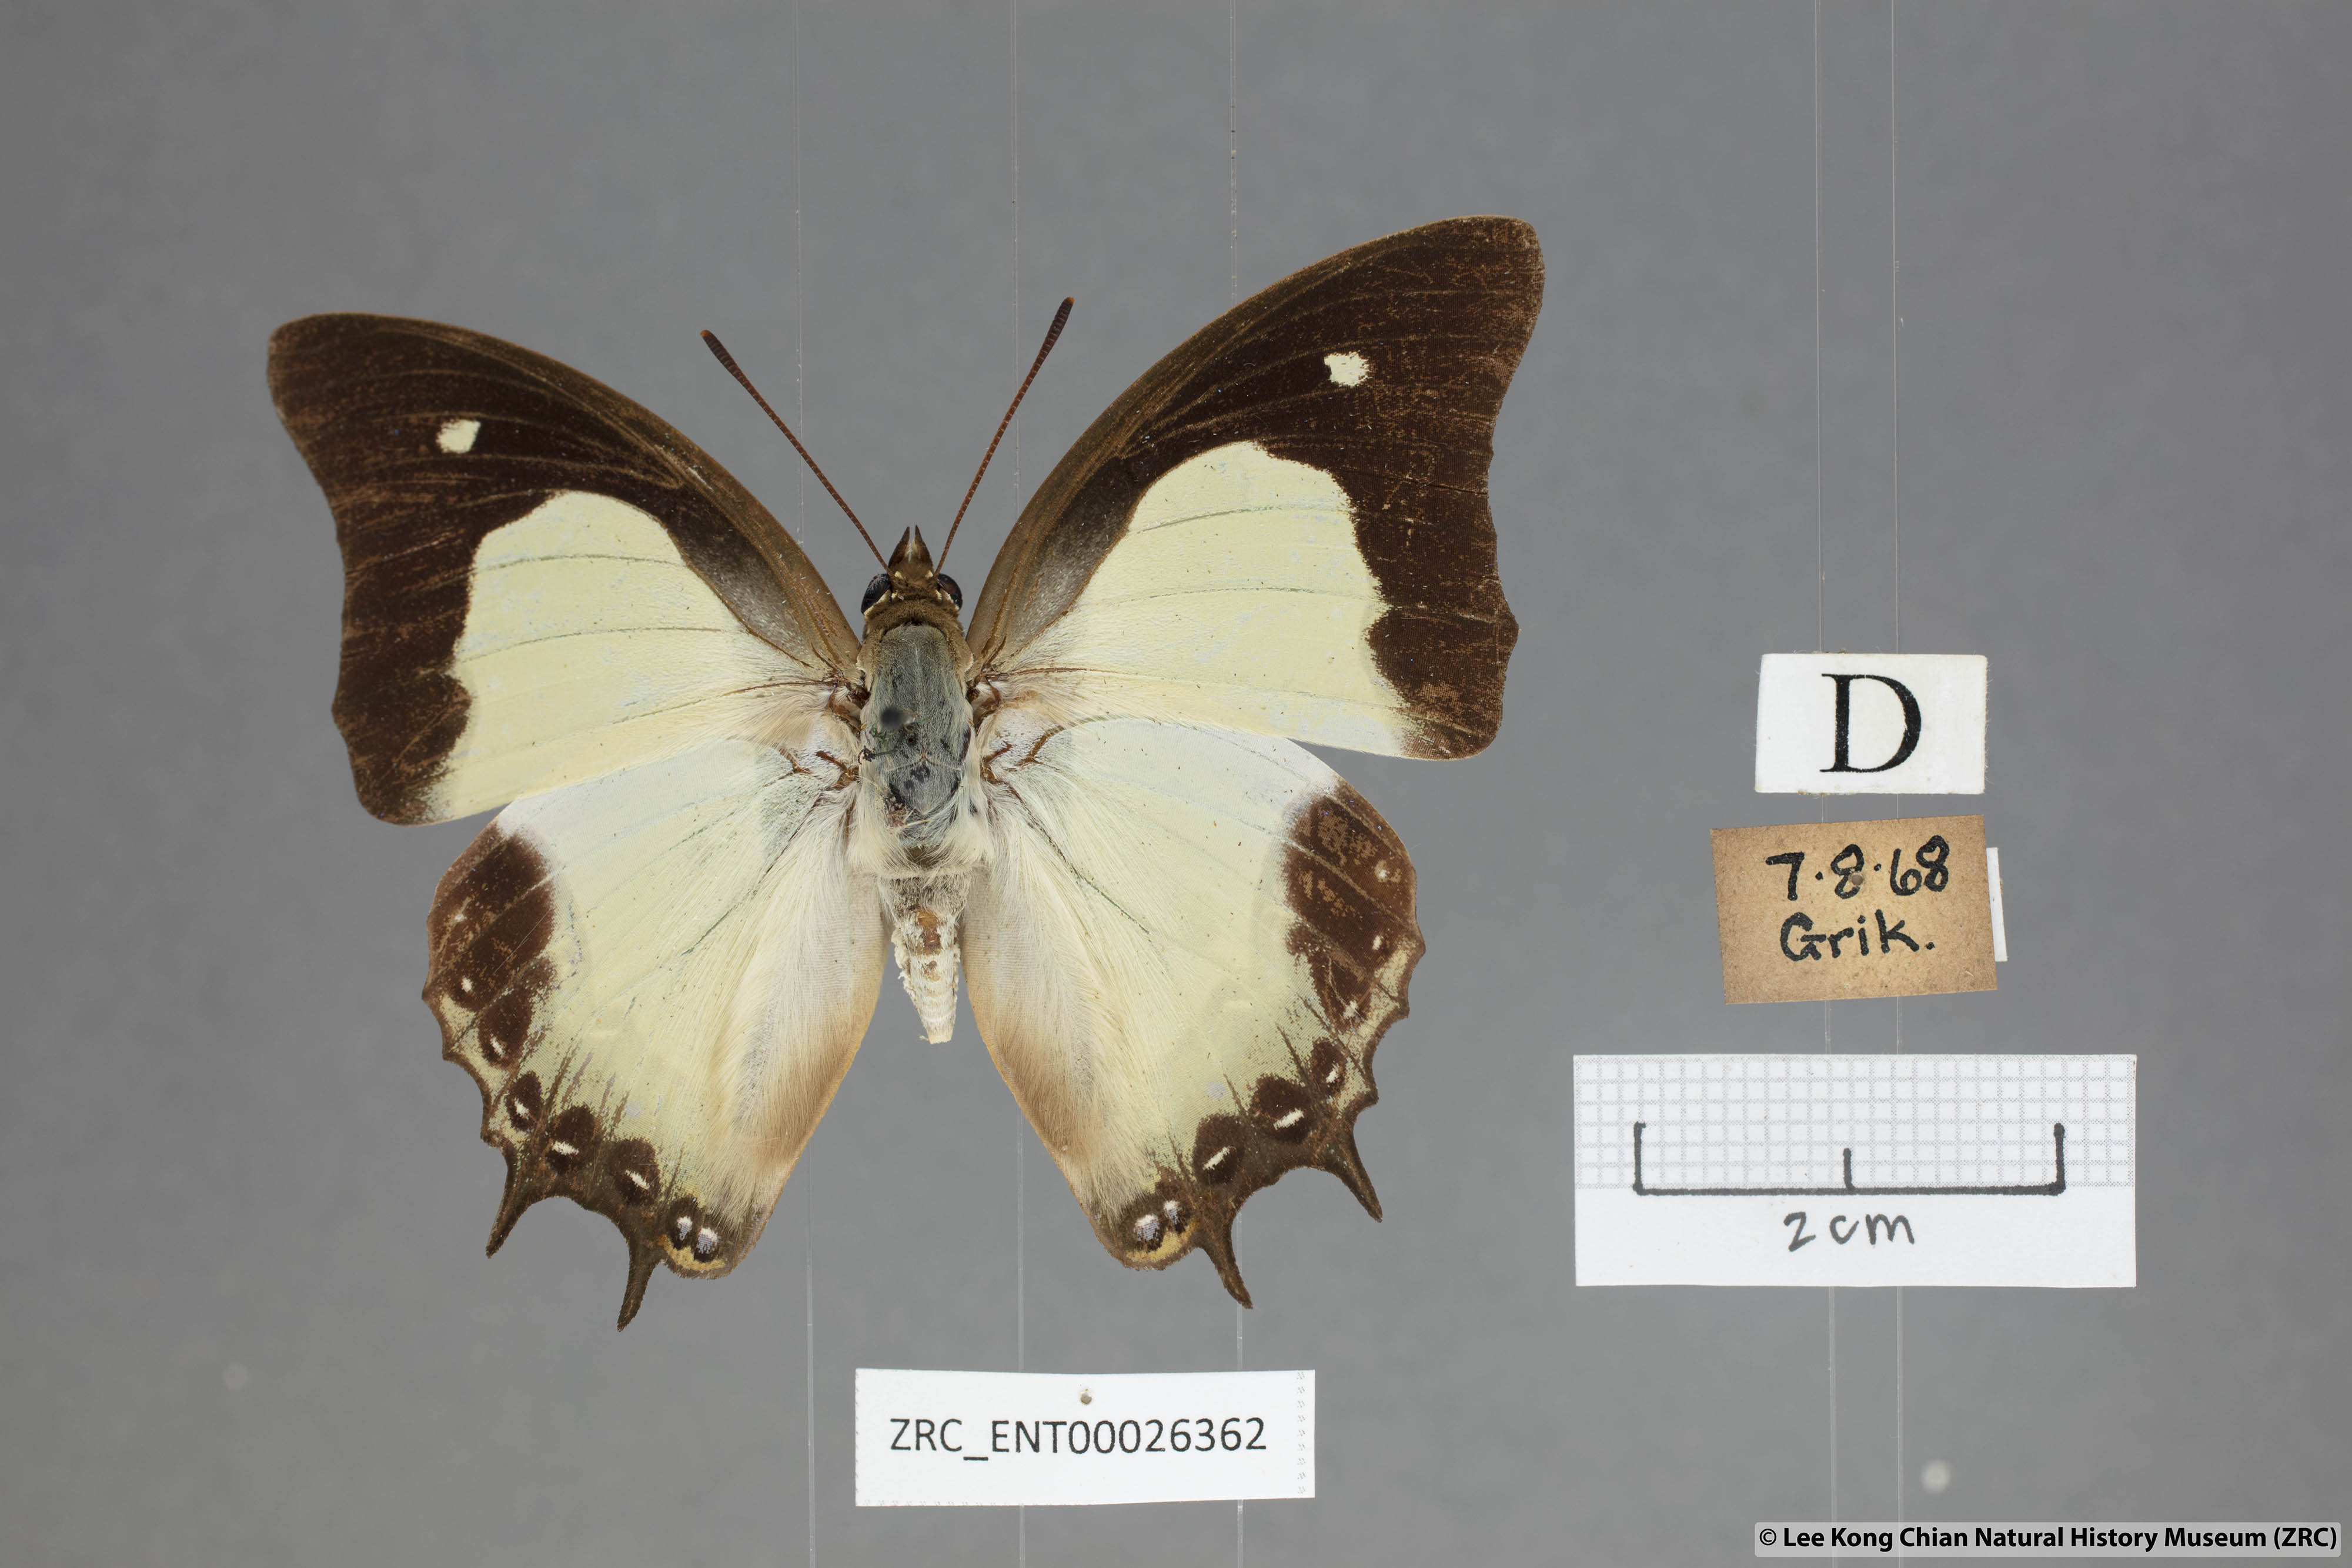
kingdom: Animalia
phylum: Arthropoda
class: Insecta
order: Lepidoptera
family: Nymphalidae
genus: Polyura
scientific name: Polyura moori
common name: Malayan nawab
